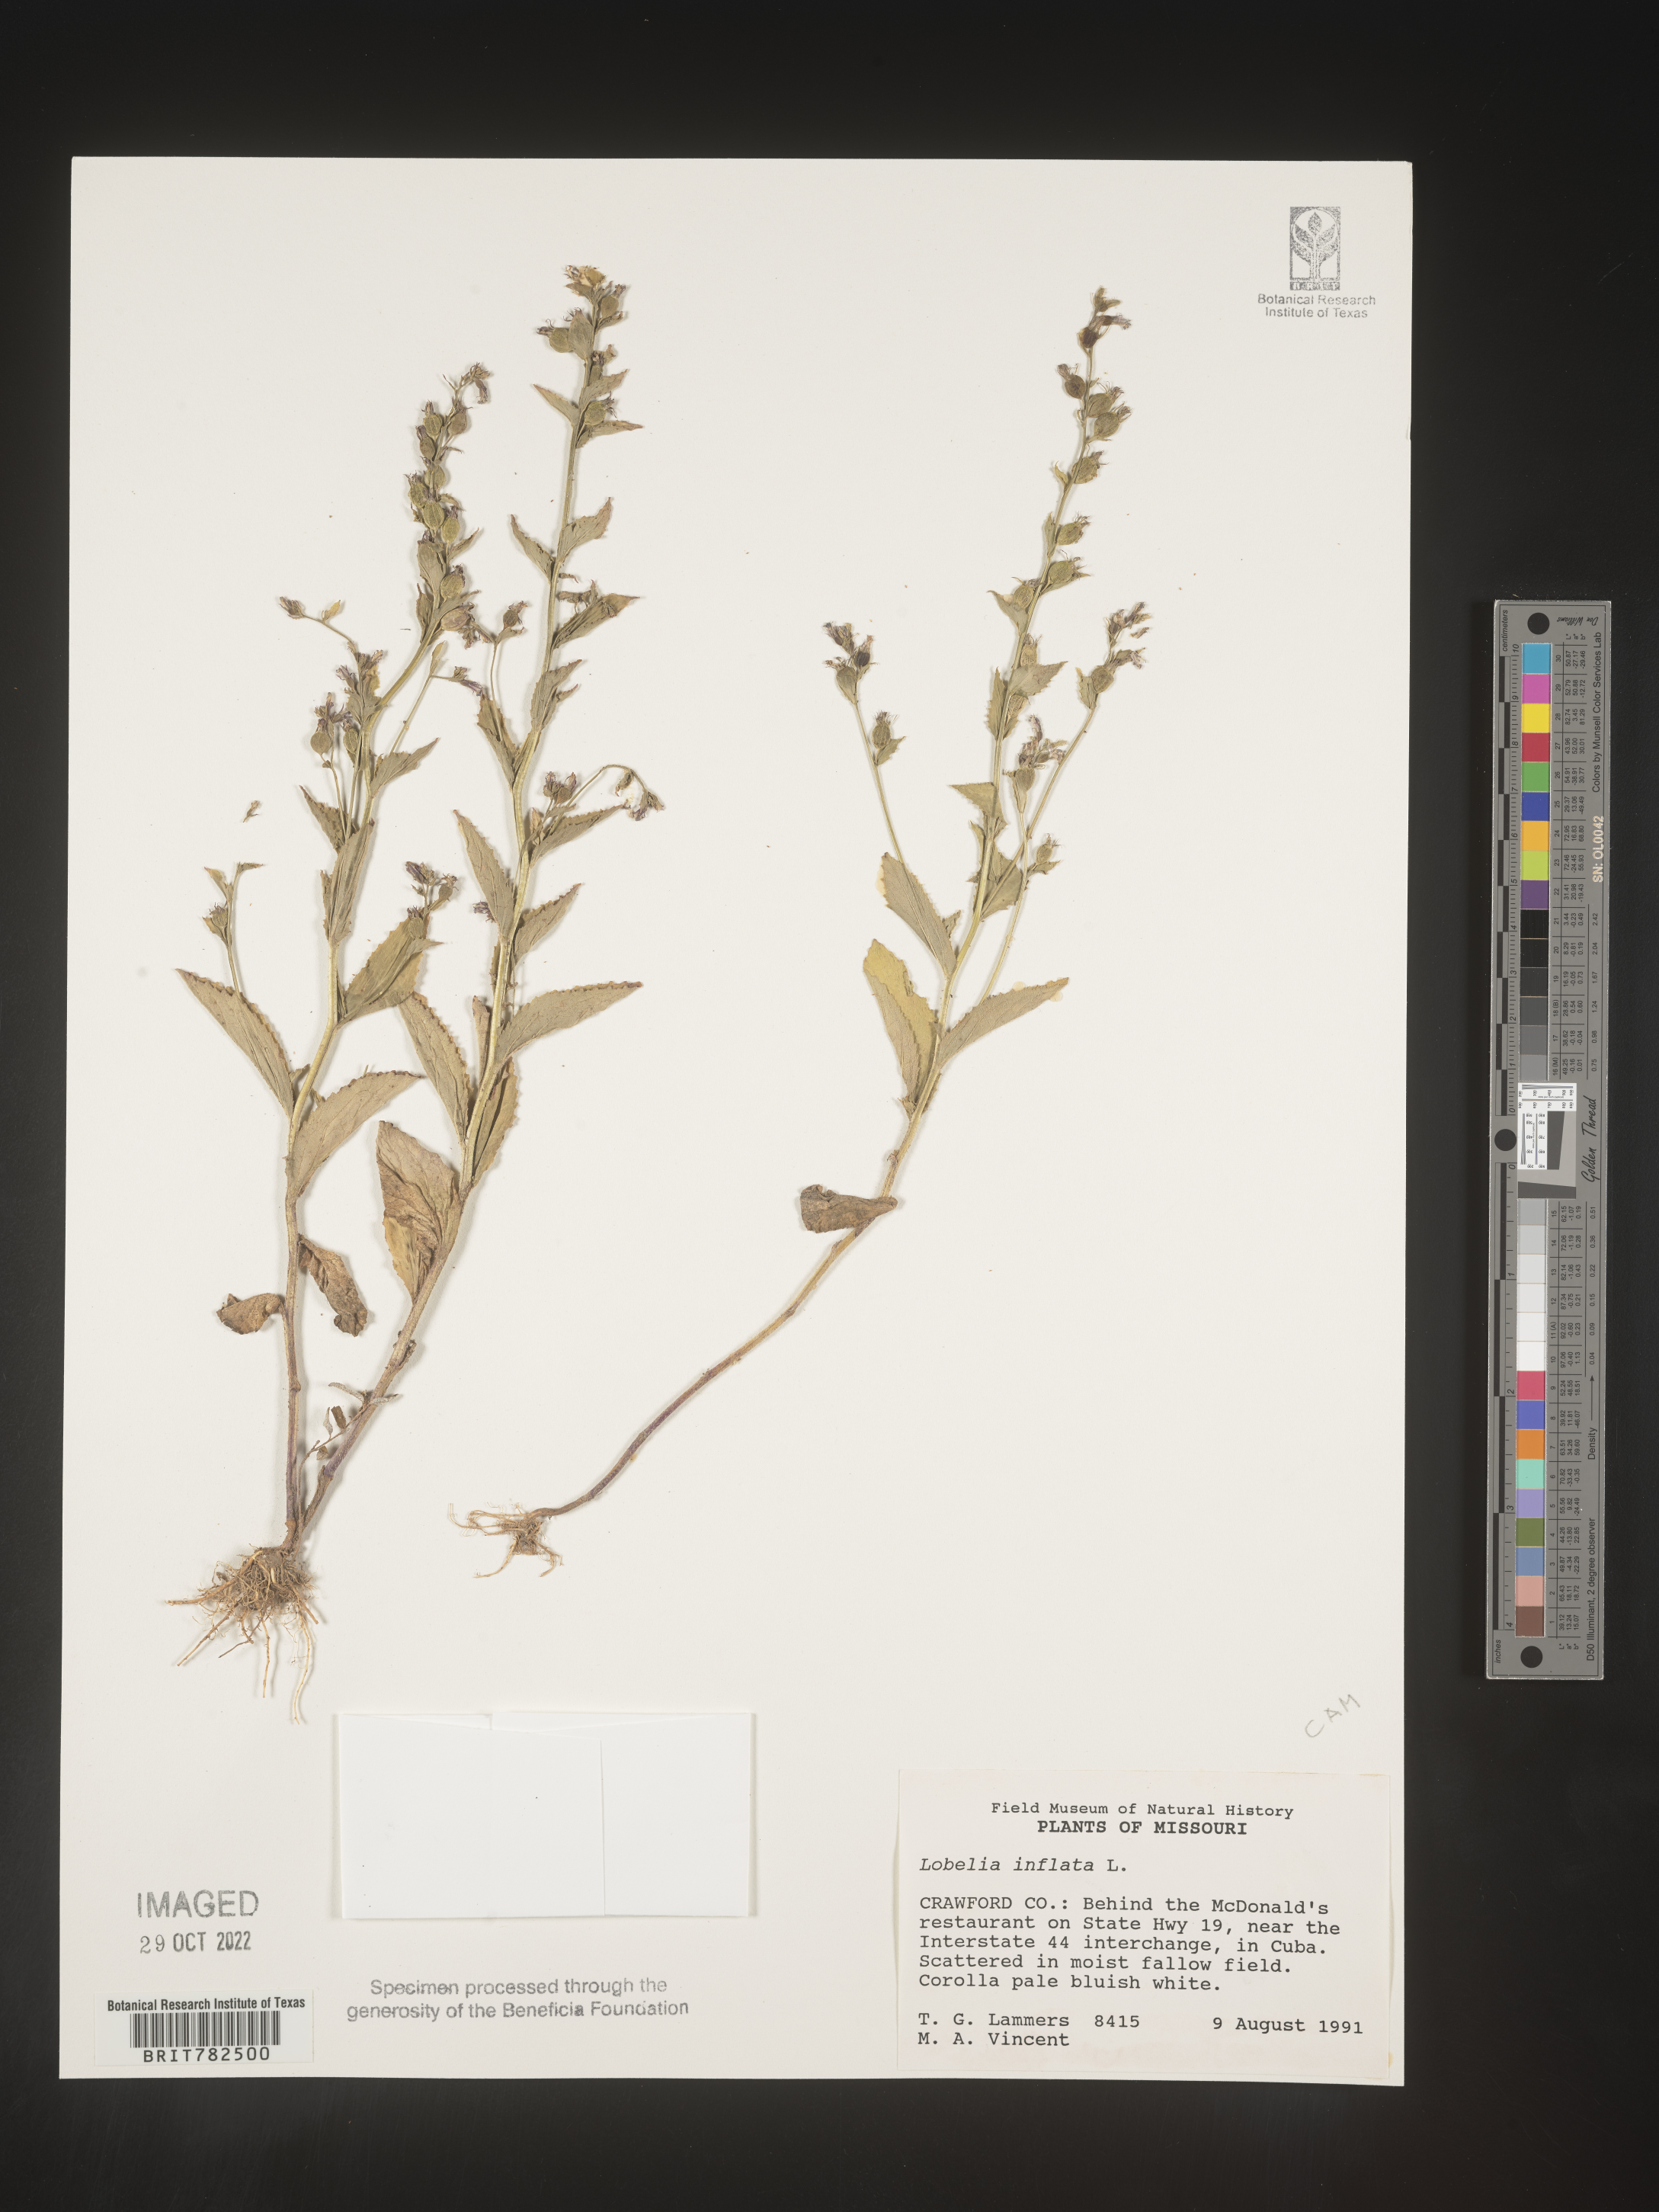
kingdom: Plantae
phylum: Tracheophyta
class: Magnoliopsida
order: Asterales
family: Campanulaceae
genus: Lobelia
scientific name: Lobelia inflata
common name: Indian tobacco
